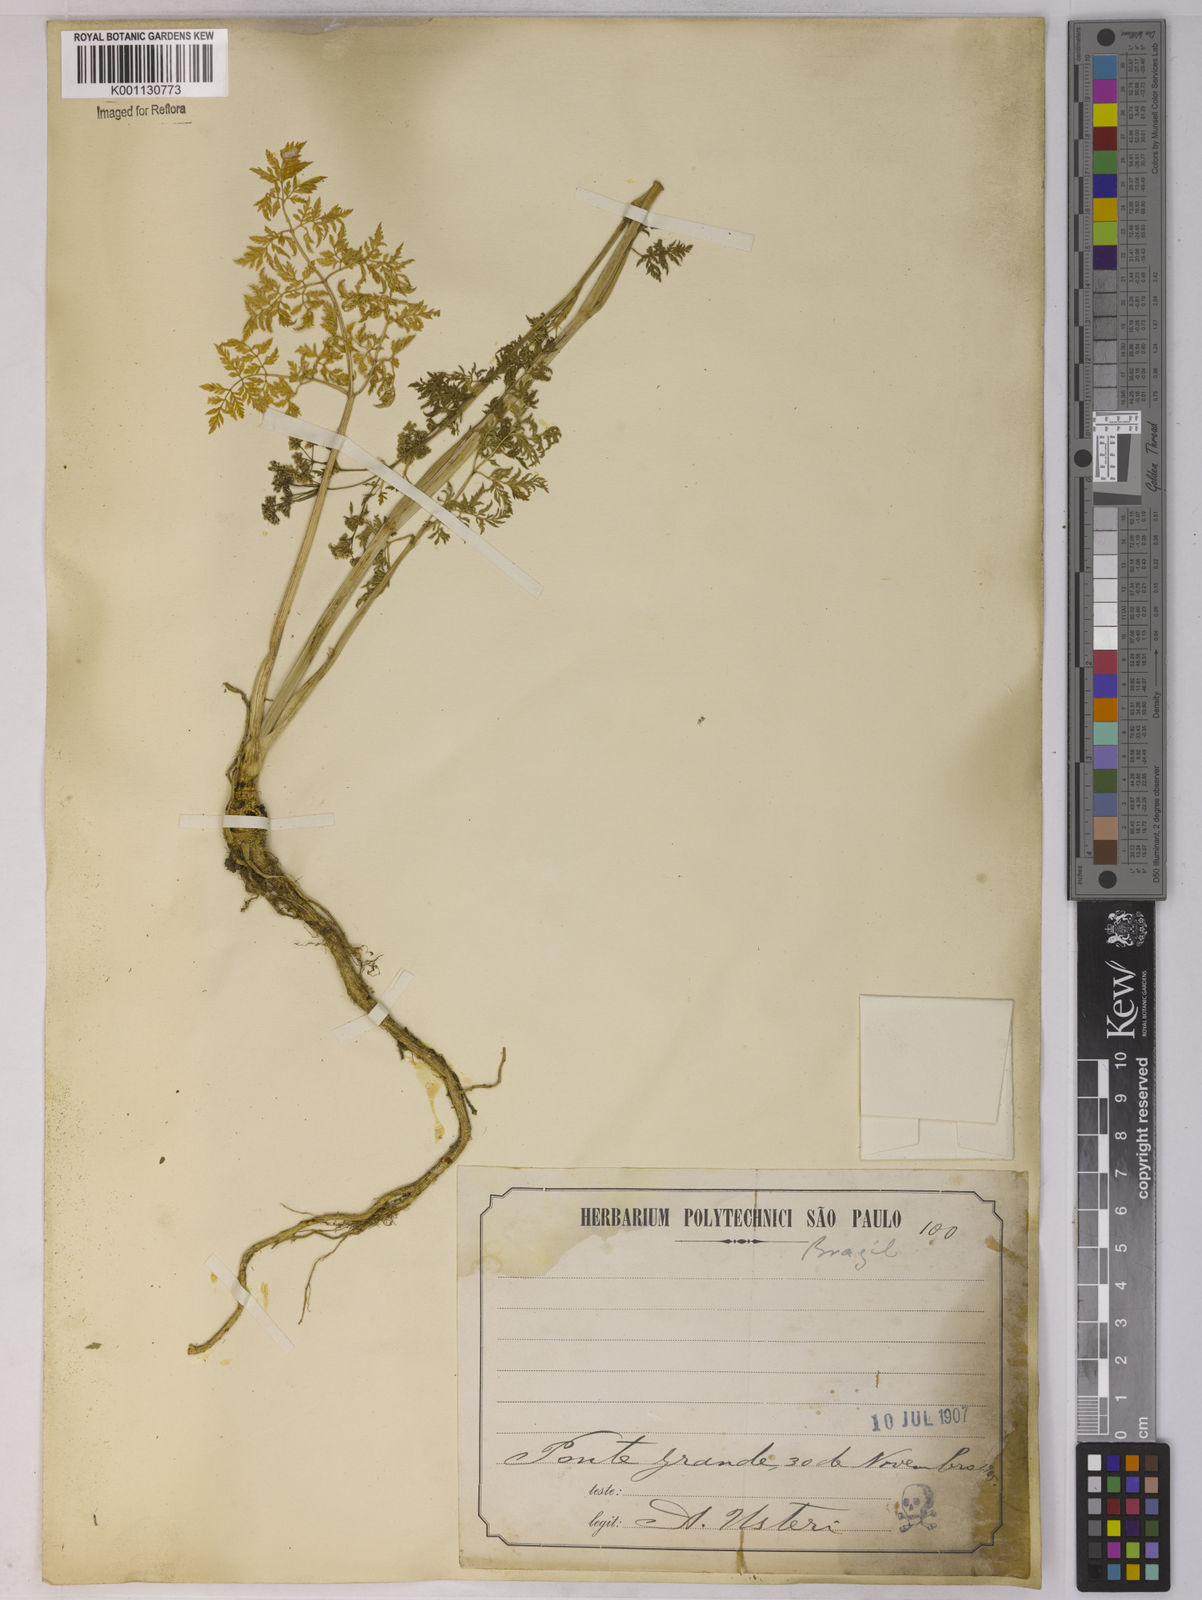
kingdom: Plantae
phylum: Tracheophyta
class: Magnoliopsida
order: Apiales
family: Apiaceae
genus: Conium
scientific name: Conium maculatum
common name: Hemlock
